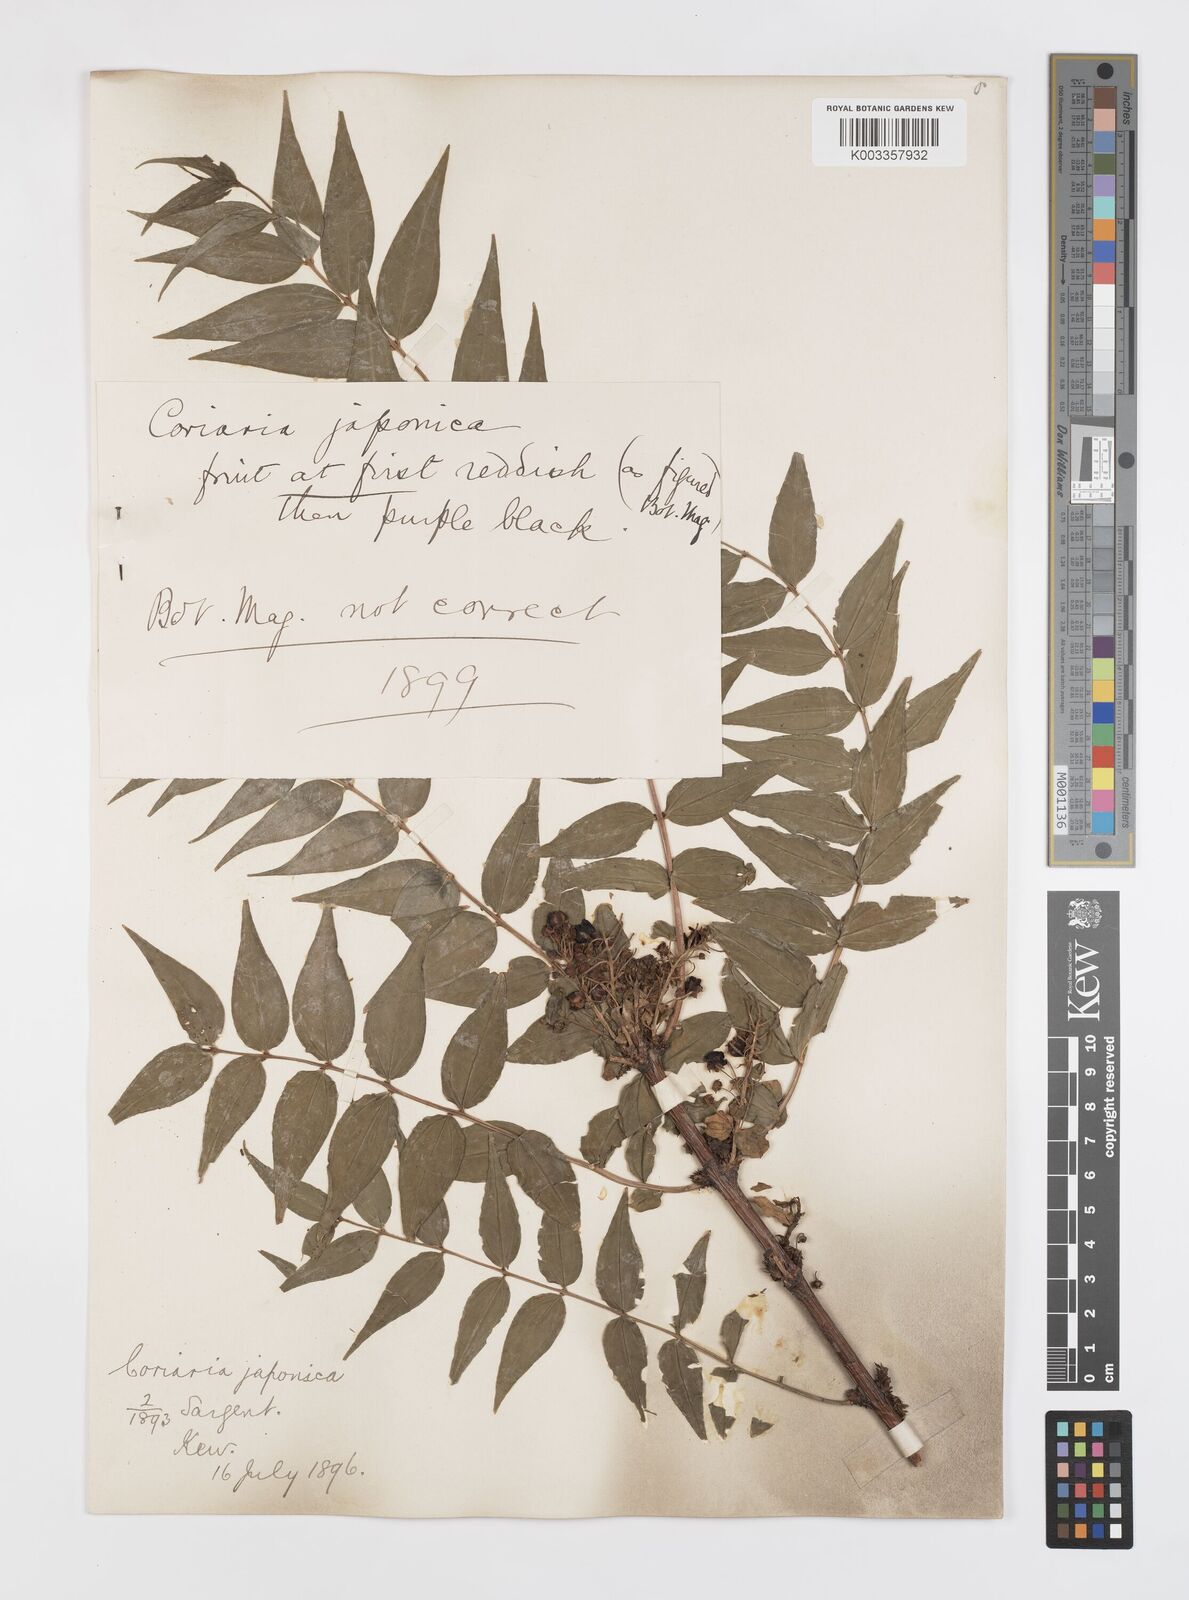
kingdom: Plantae
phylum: Tracheophyta
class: Magnoliopsida
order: Cucurbitales
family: Coriariaceae
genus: Coriaria
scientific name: Coriaria
